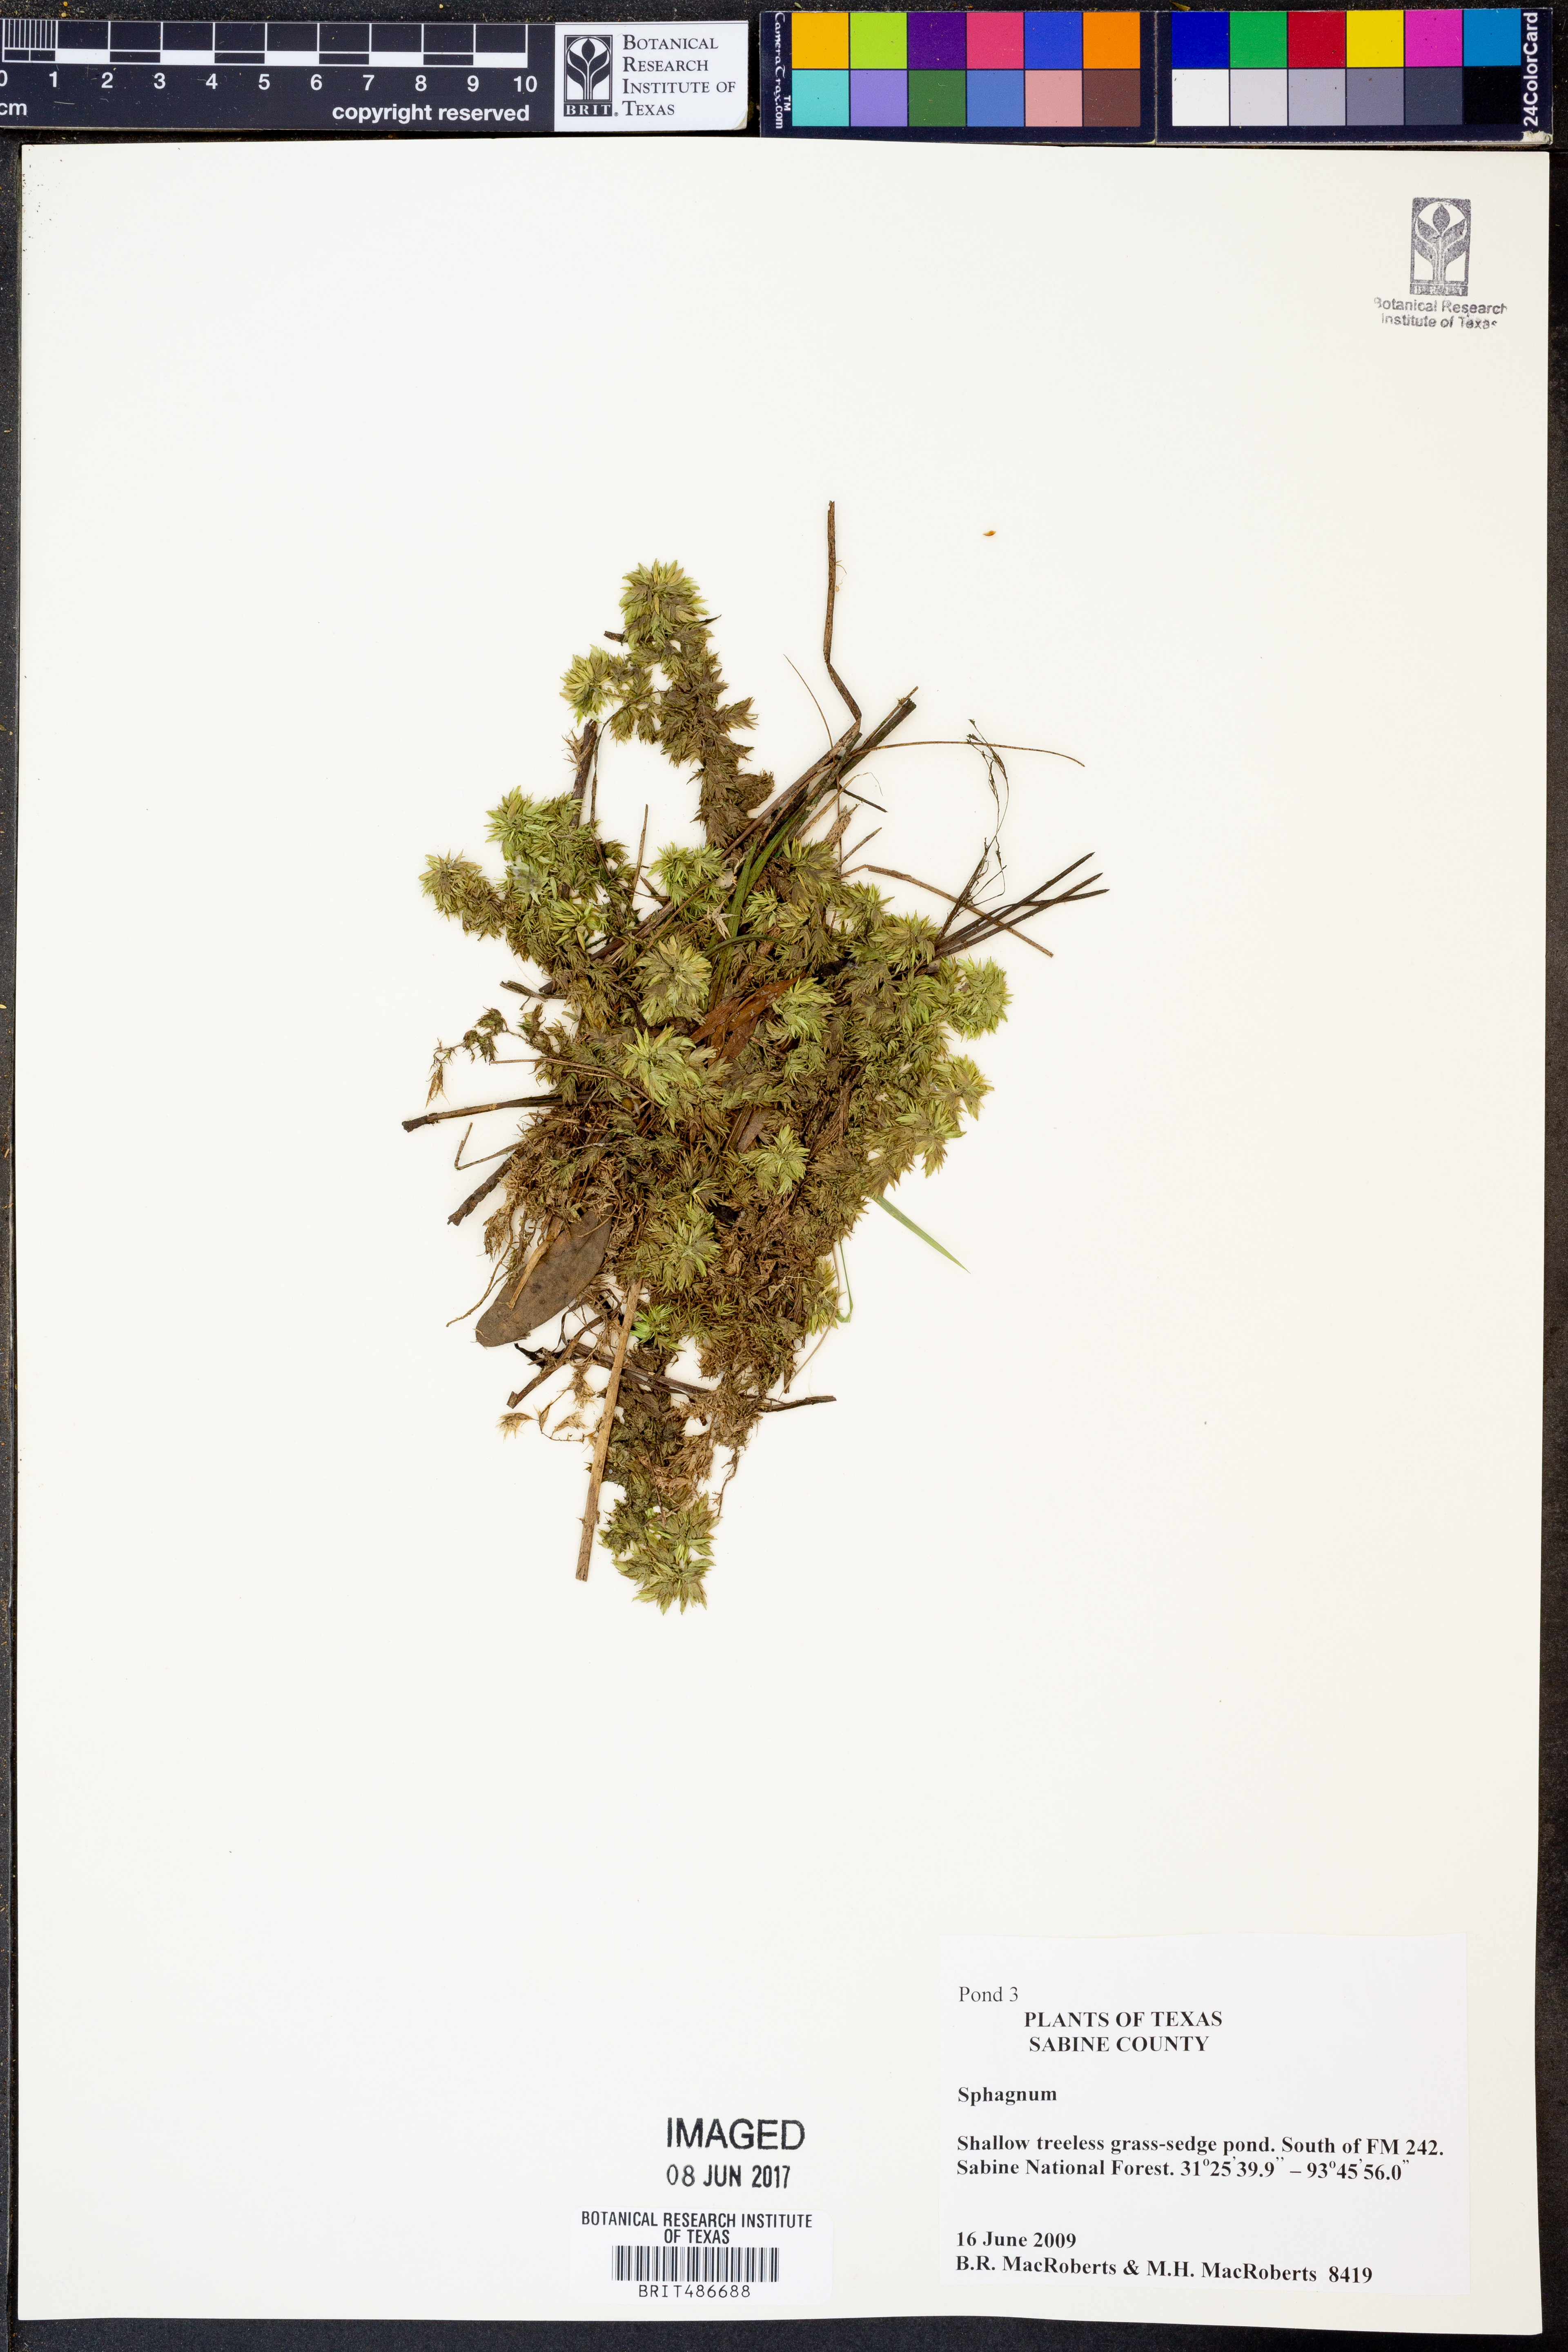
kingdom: Plantae
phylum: Bryophyta
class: Sphagnopsida
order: Sphagnales
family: Sphagnaceae
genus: Sphagnum
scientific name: Sphagnum
